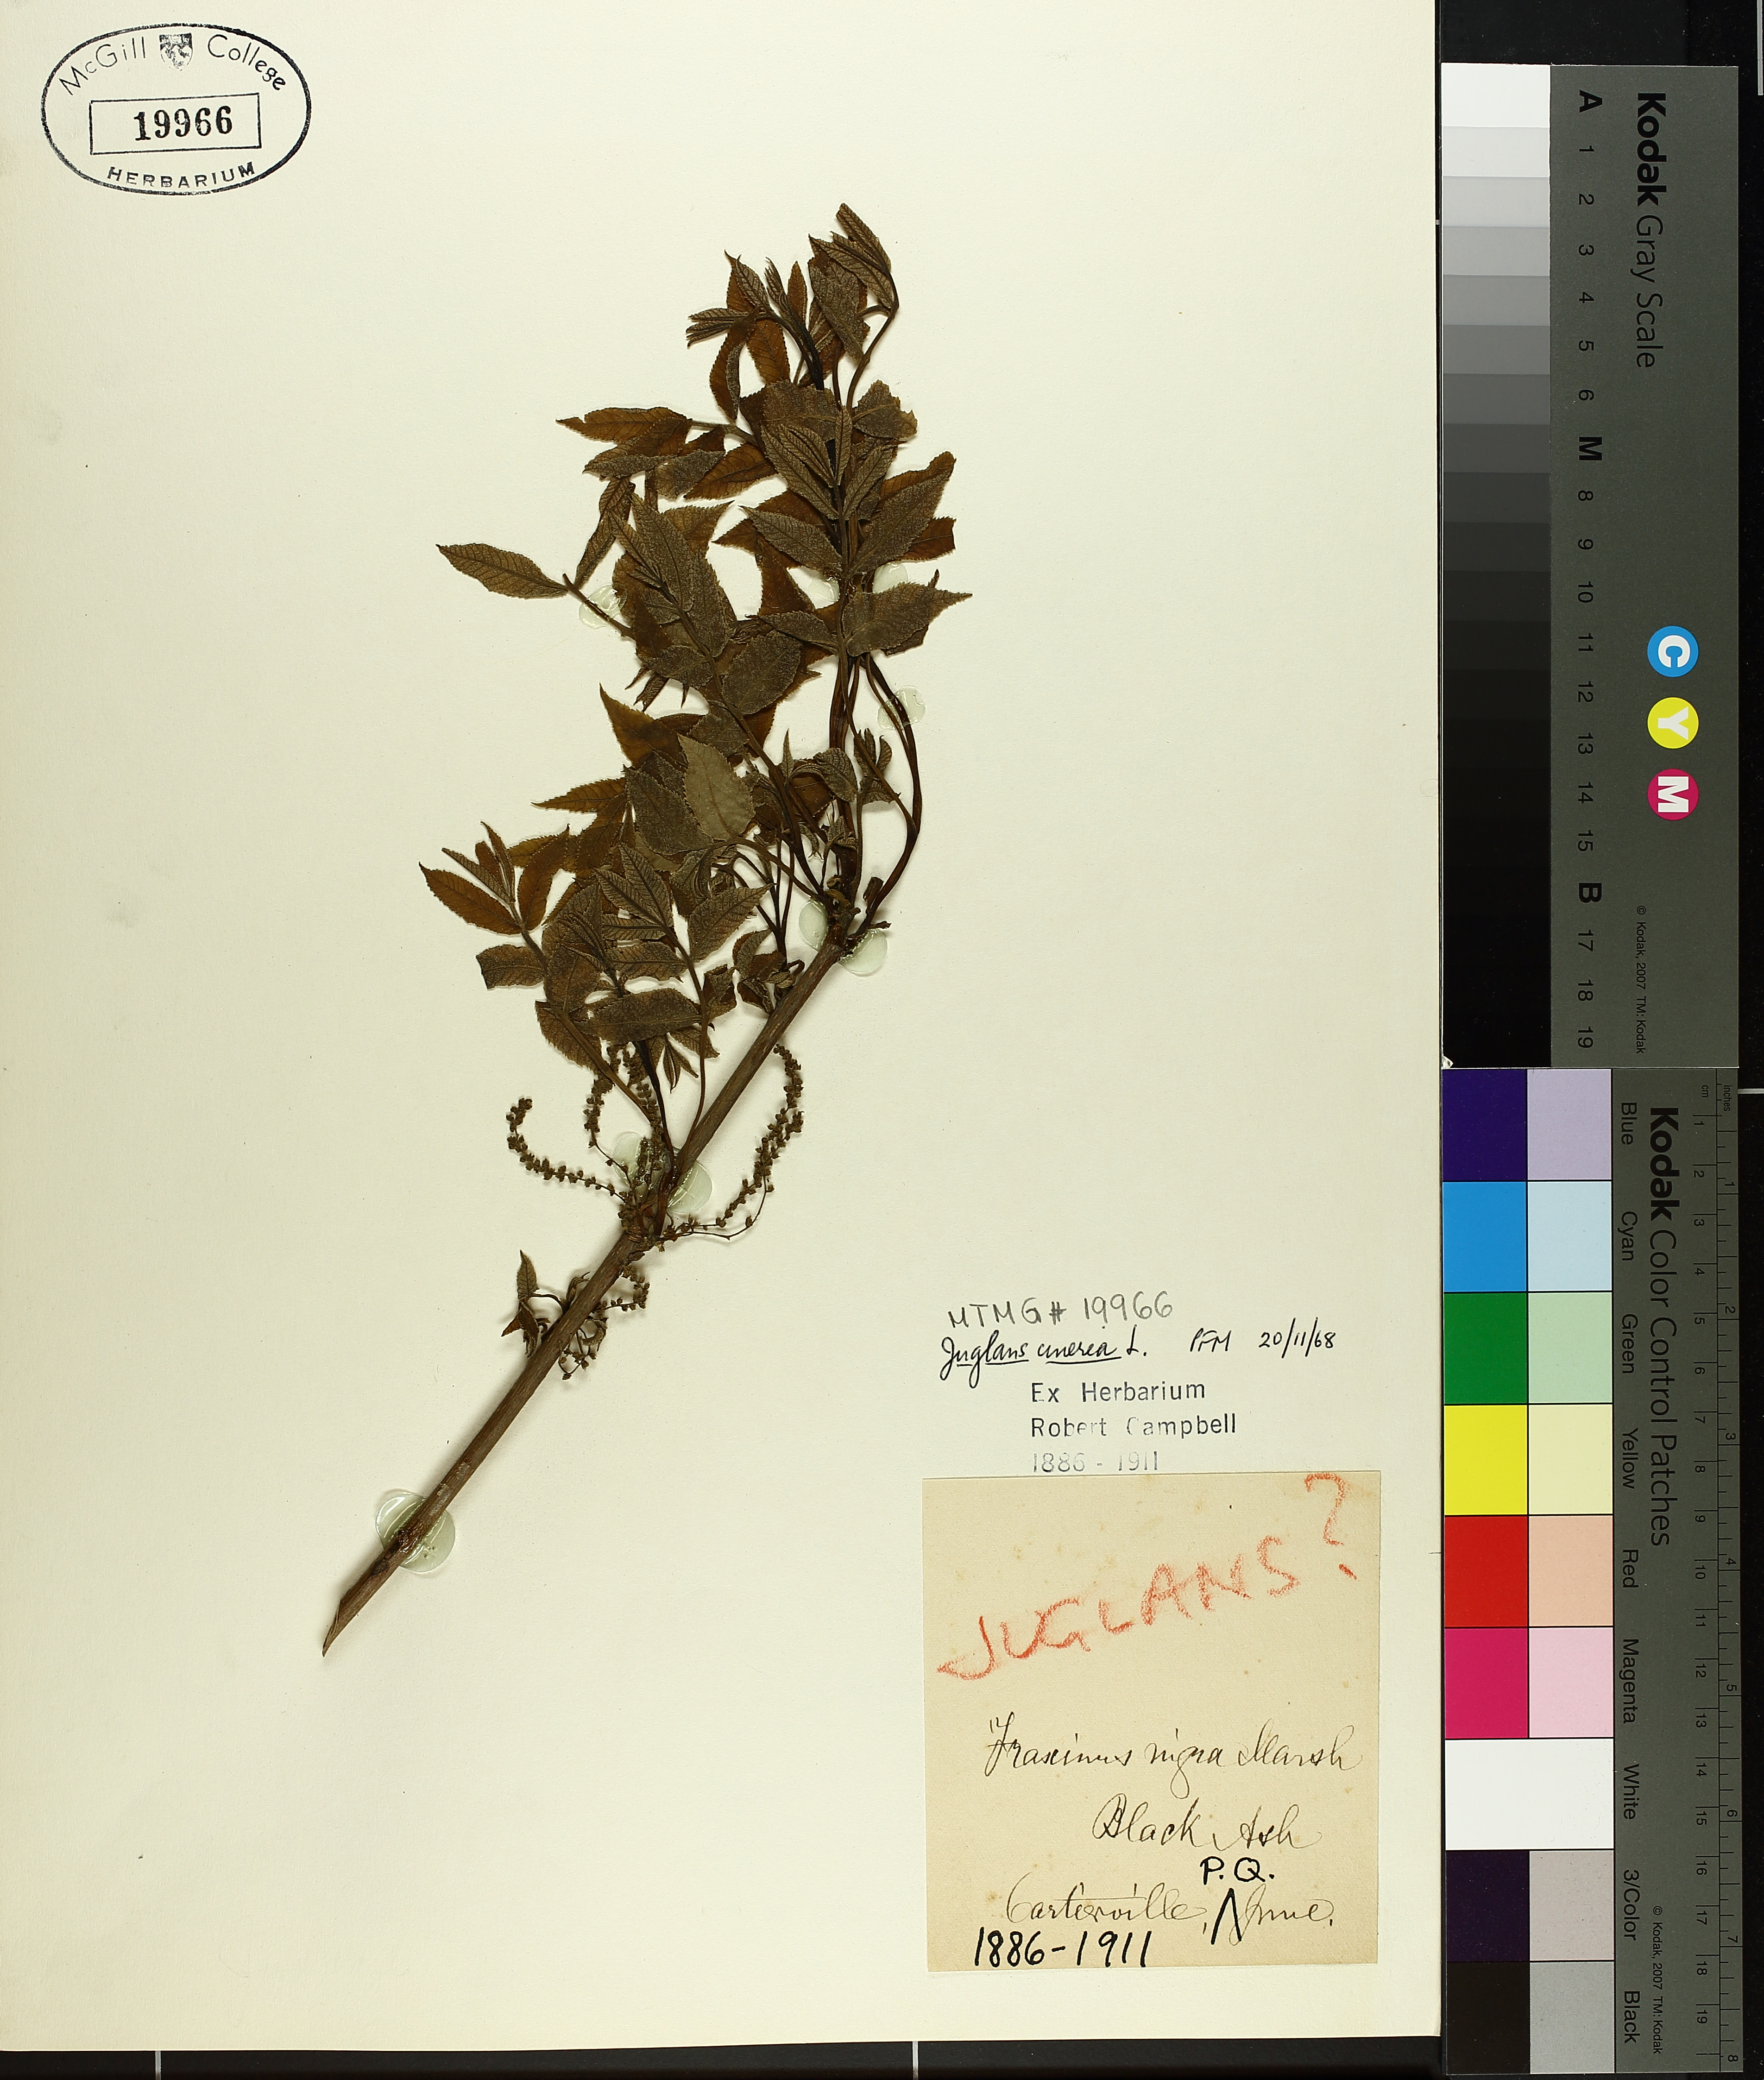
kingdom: Plantae
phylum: Tracheophyta
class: Magnoliopsida
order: Fagales
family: Juglandaceae
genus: Juglans
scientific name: Juglans cinerea
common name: Butternut
